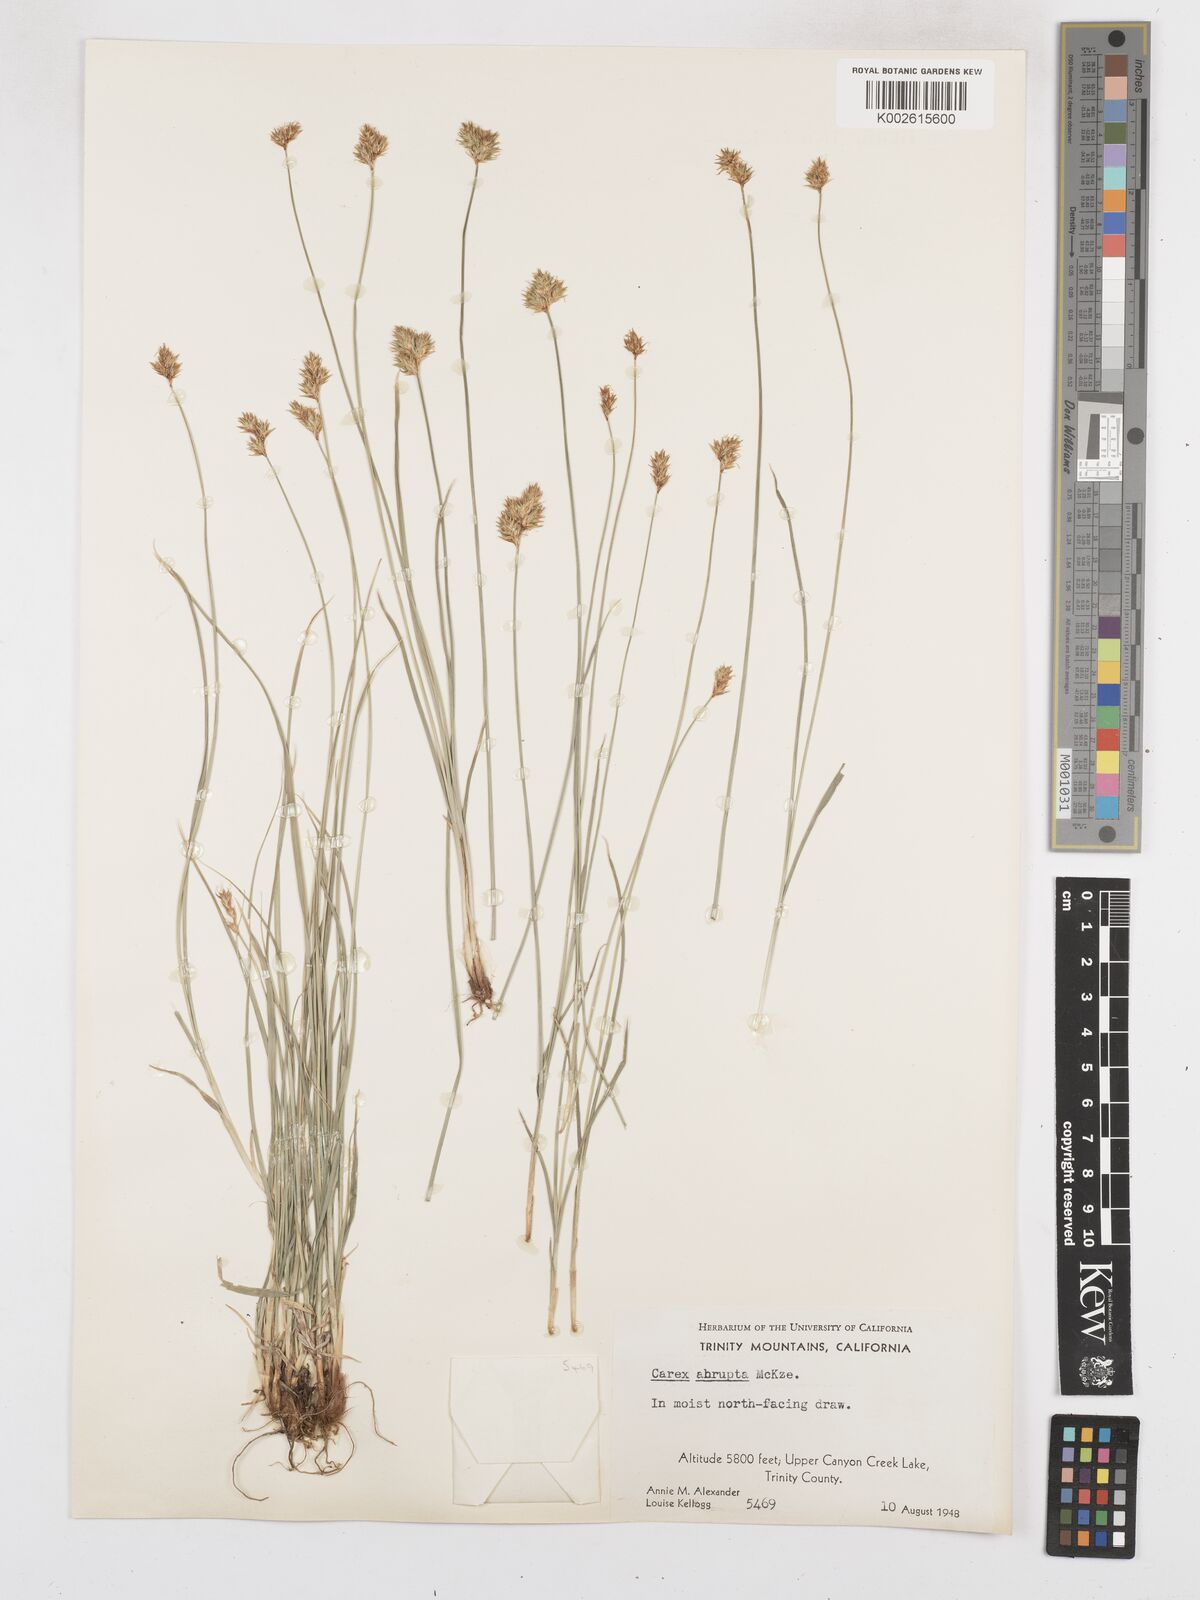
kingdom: Plantae
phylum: Tracheophyta
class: Liliopsida
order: Poales
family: Cyperaceae
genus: Carex
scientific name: Carex abrupta
